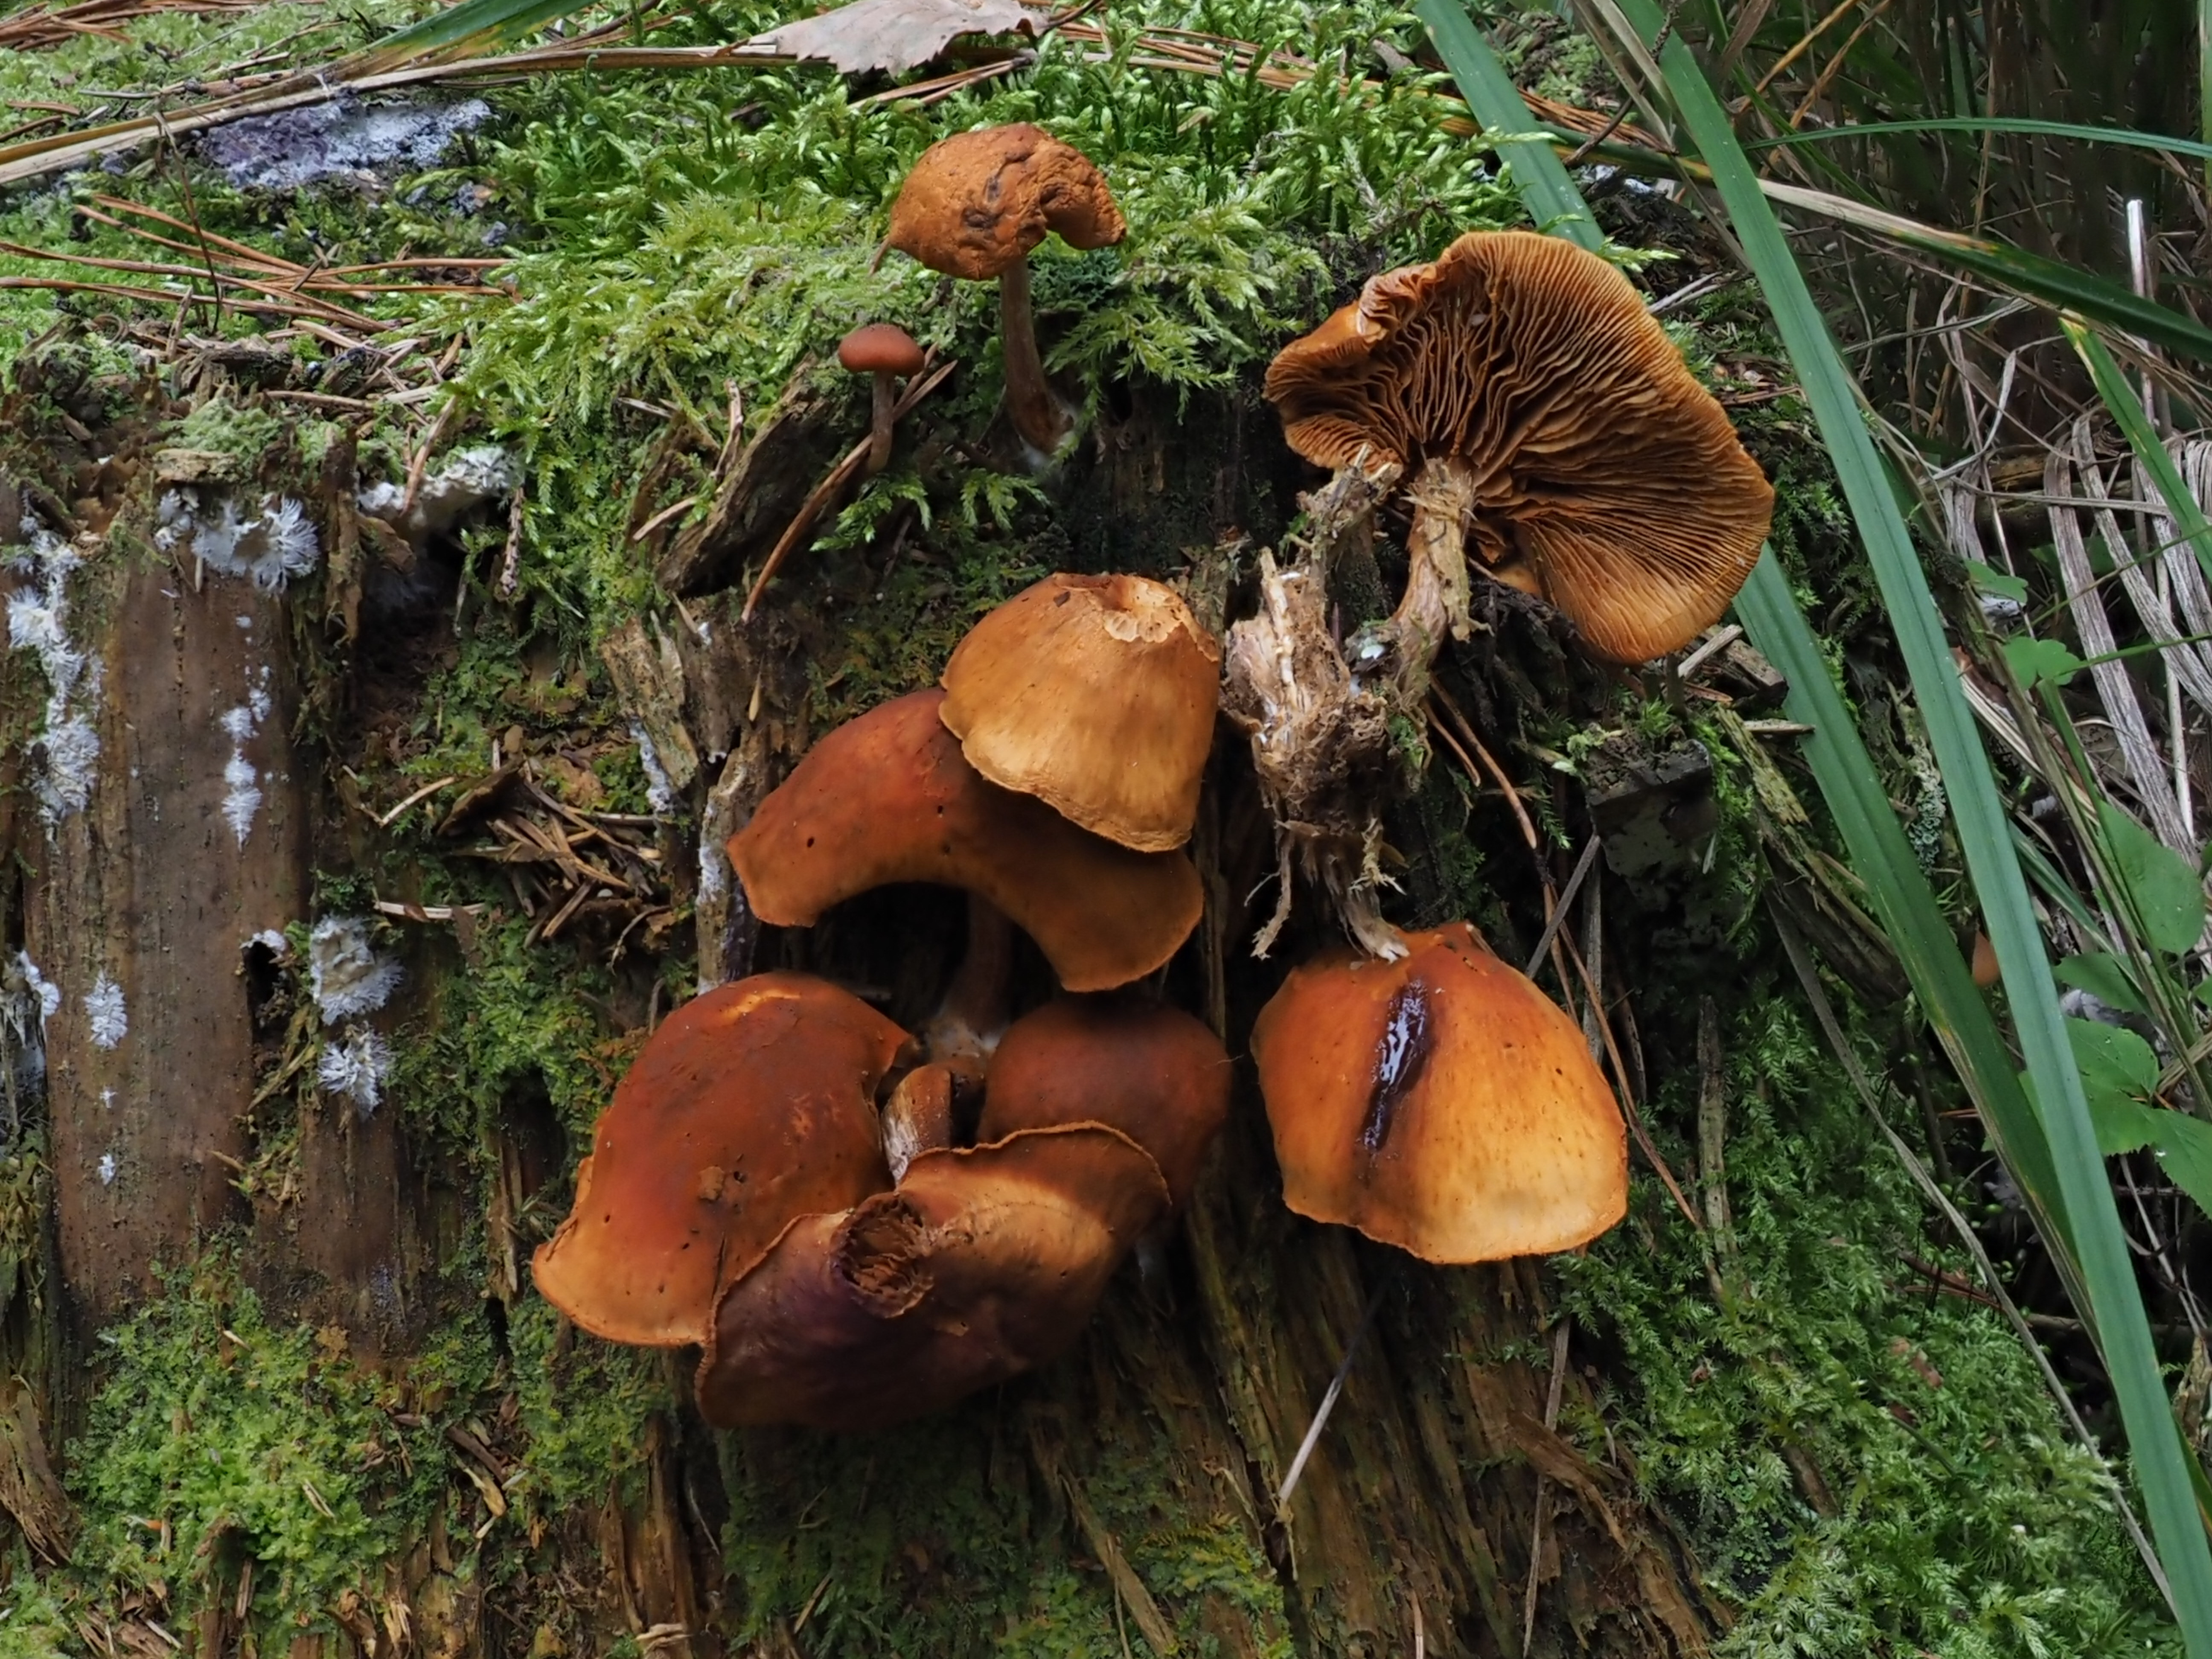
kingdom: Fungi
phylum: Basidiomycota
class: Agaricomycetes
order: Agaricales
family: Hymenogastraceae
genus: Gymnopilus
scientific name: Gymnopilus picreus
